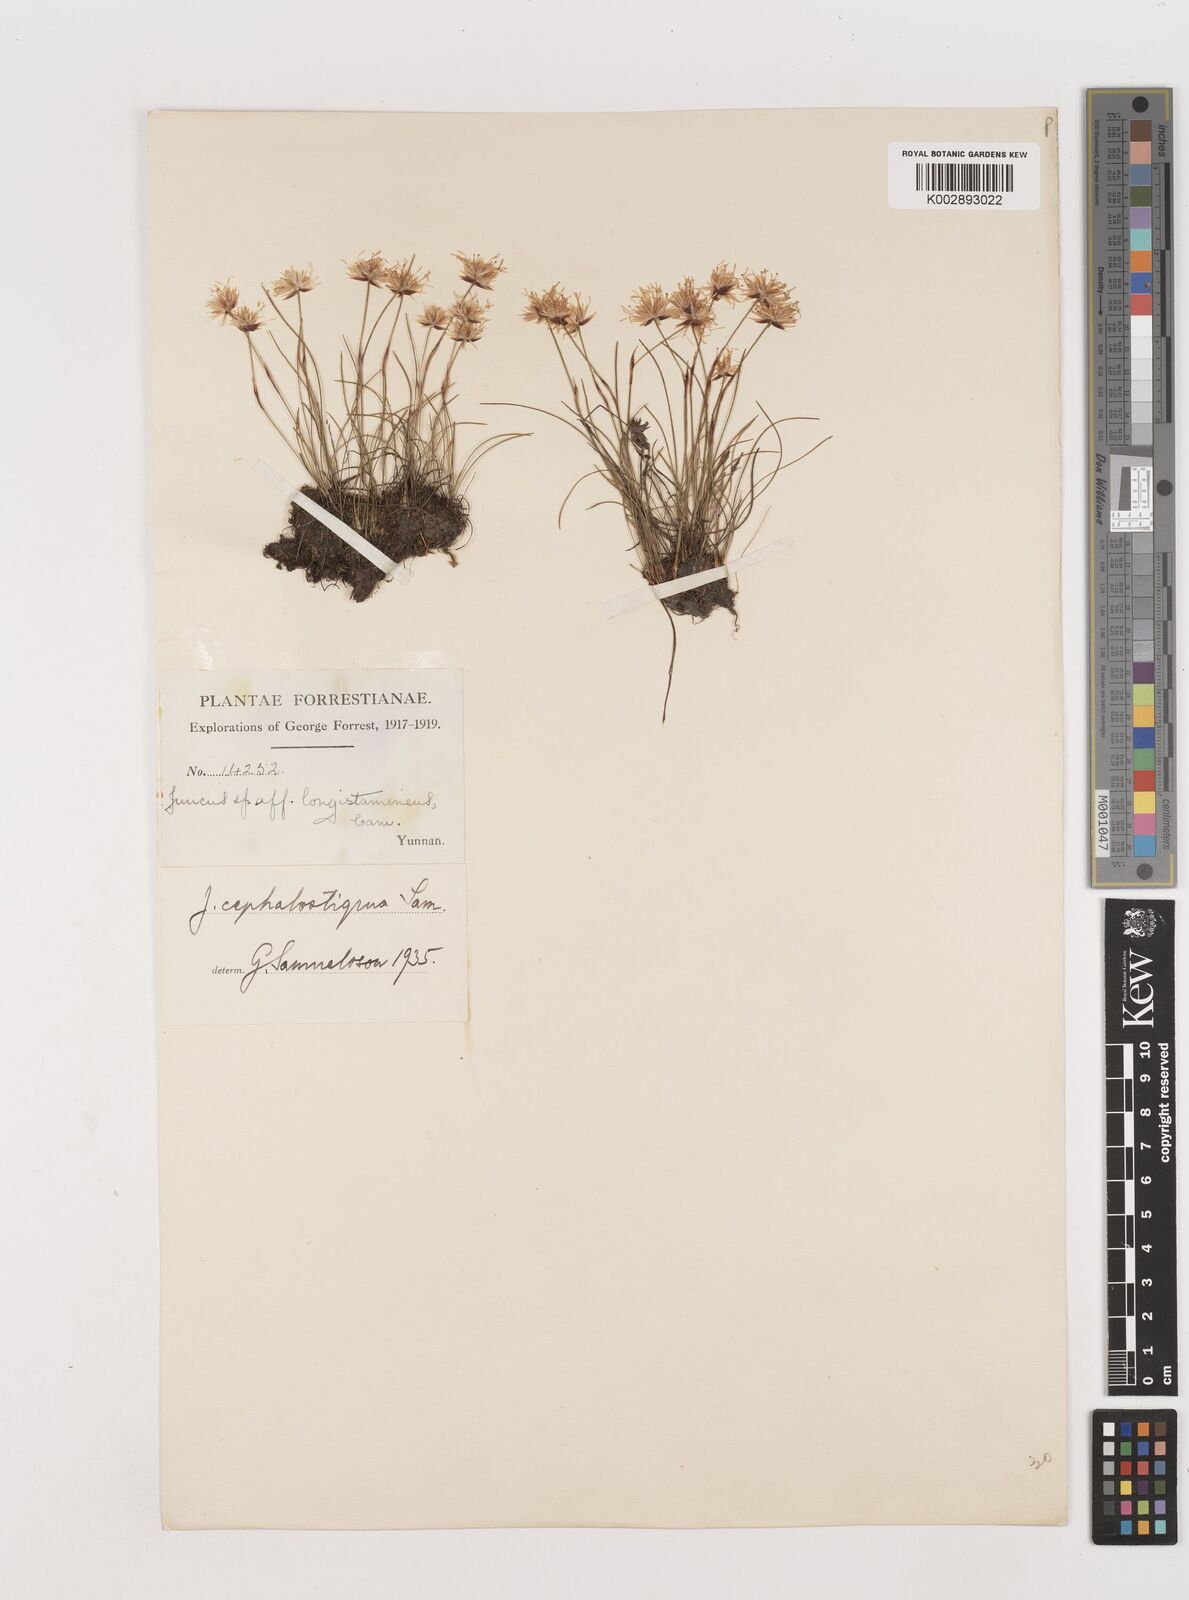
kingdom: Plantae
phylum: Tracheophyta
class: Liliopsida
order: Poales
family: Juncaceae
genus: Juncus
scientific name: Juncus cephalostigma
